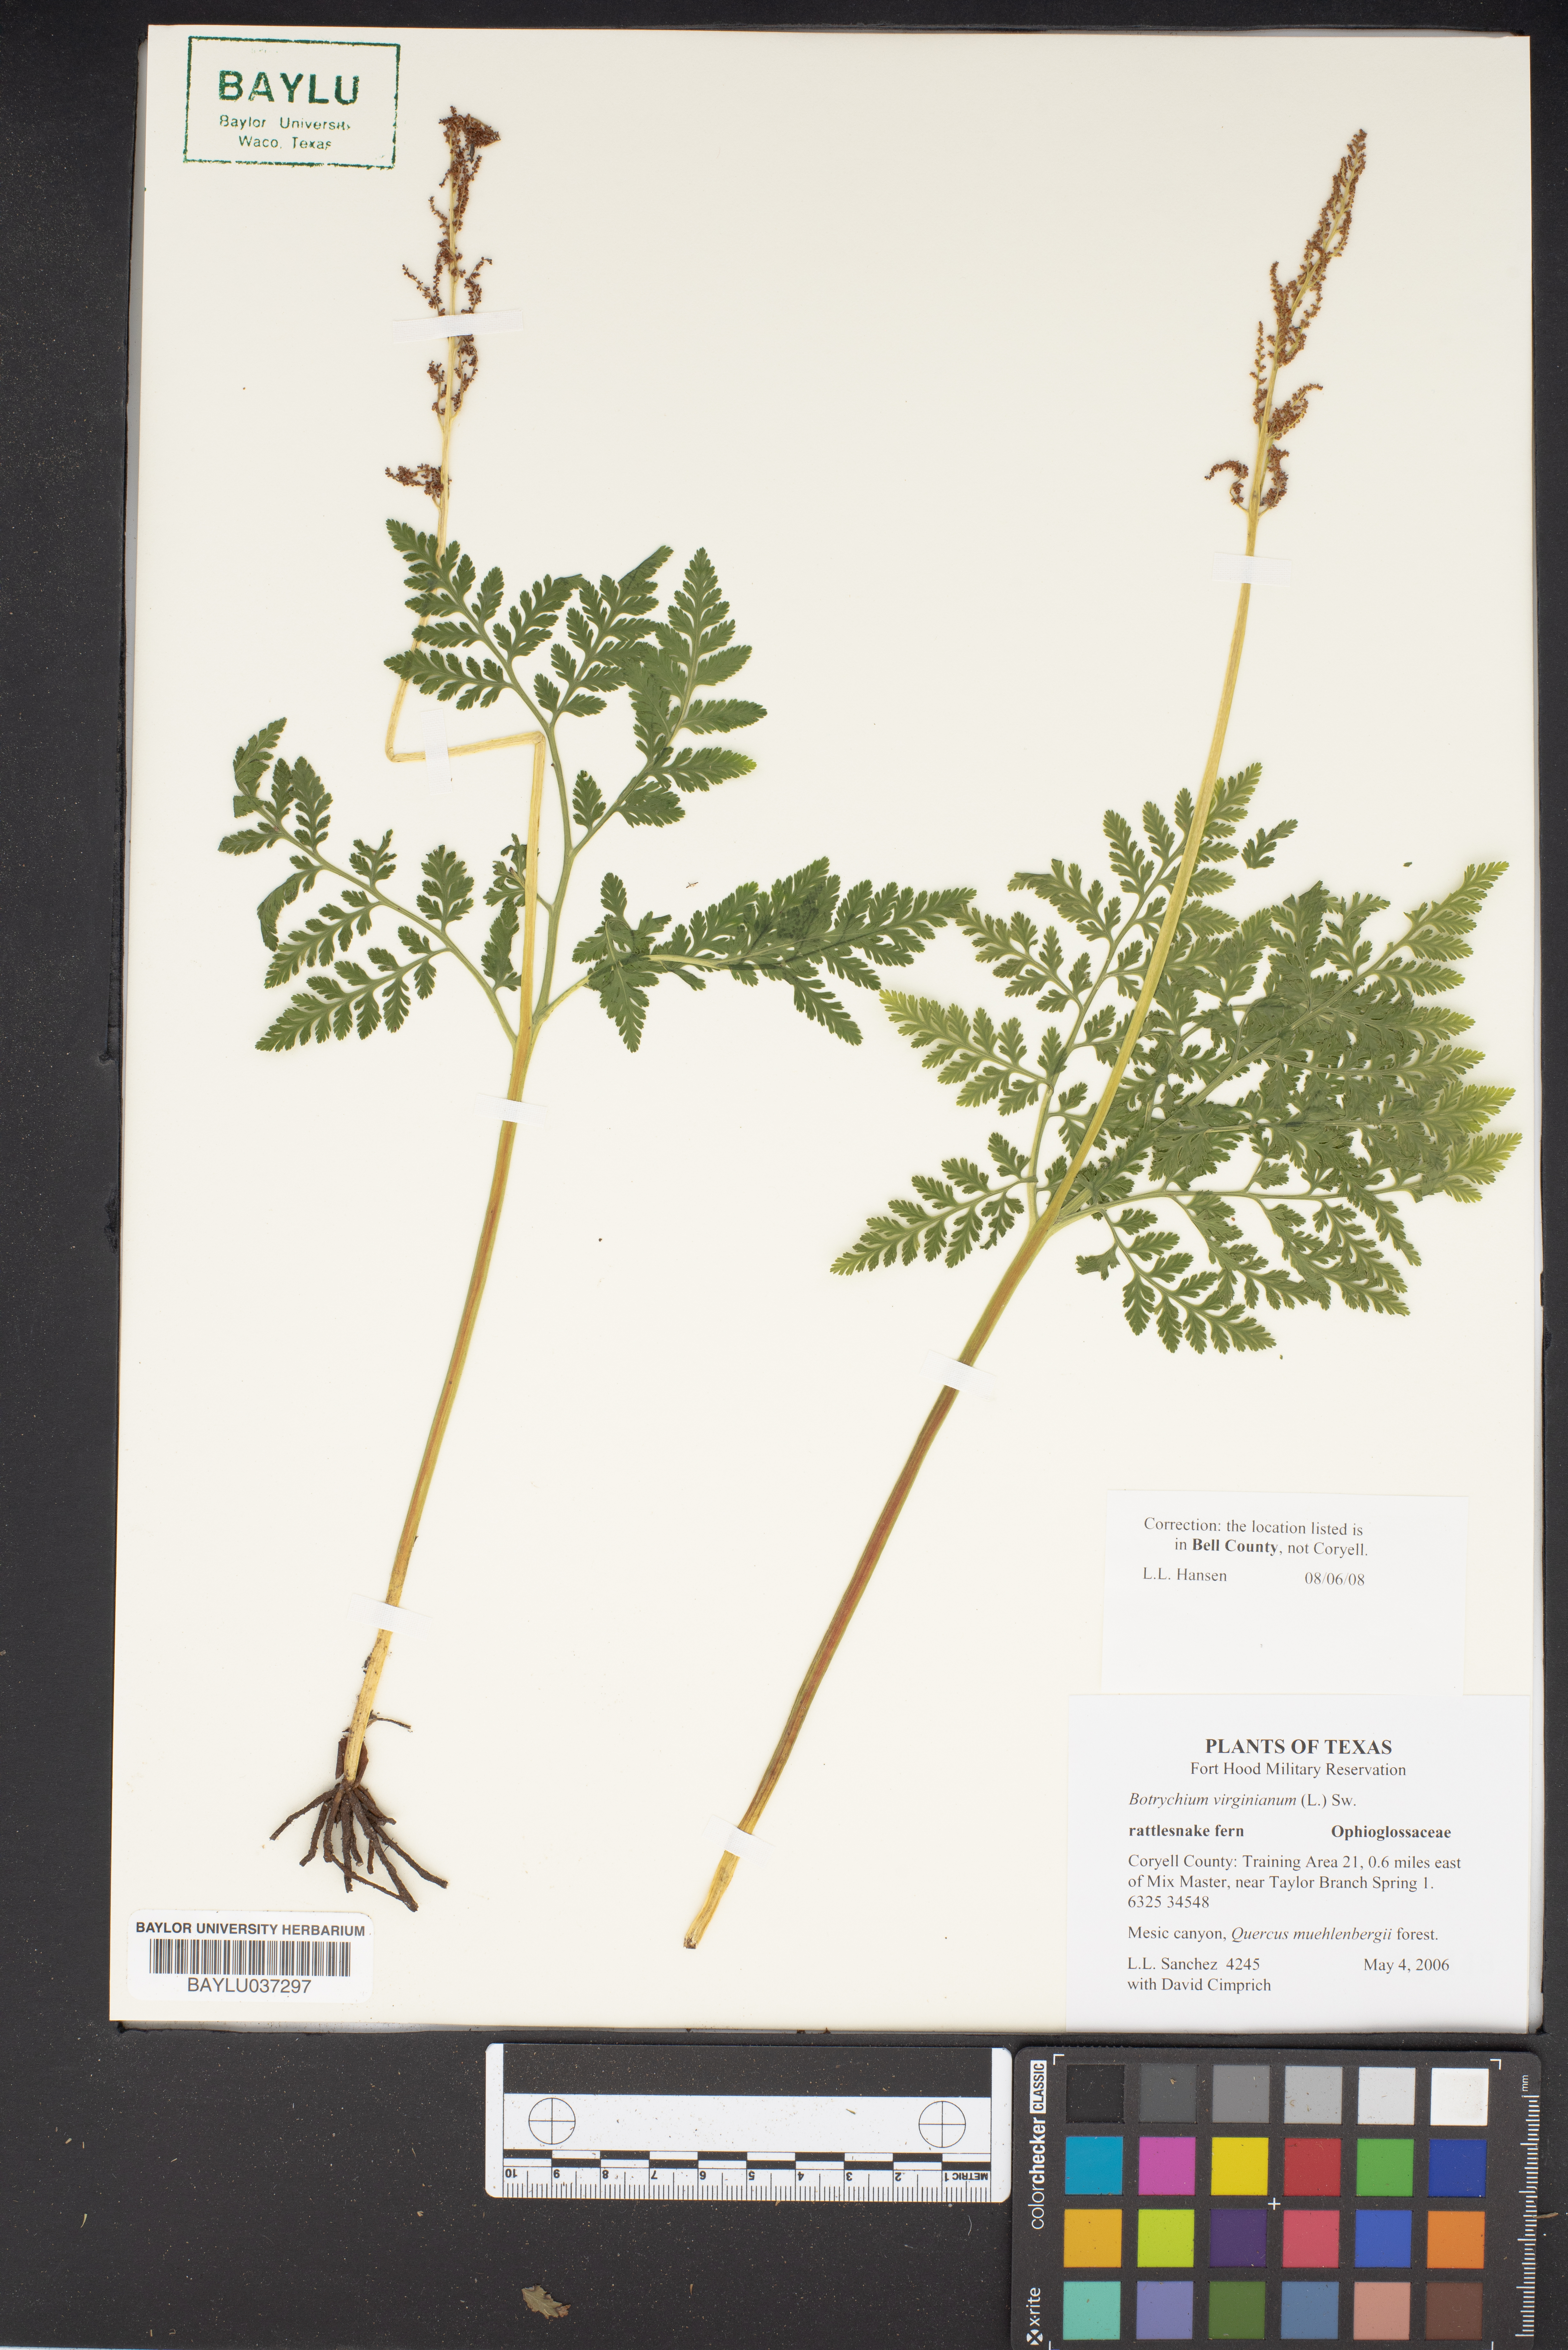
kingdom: Plantae
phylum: Tracheophyta
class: Polypodiopsida
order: Ophioglossales
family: Ophioglossaceae
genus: Botrypus
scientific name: Botrypus virginianus
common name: Common grapefern
